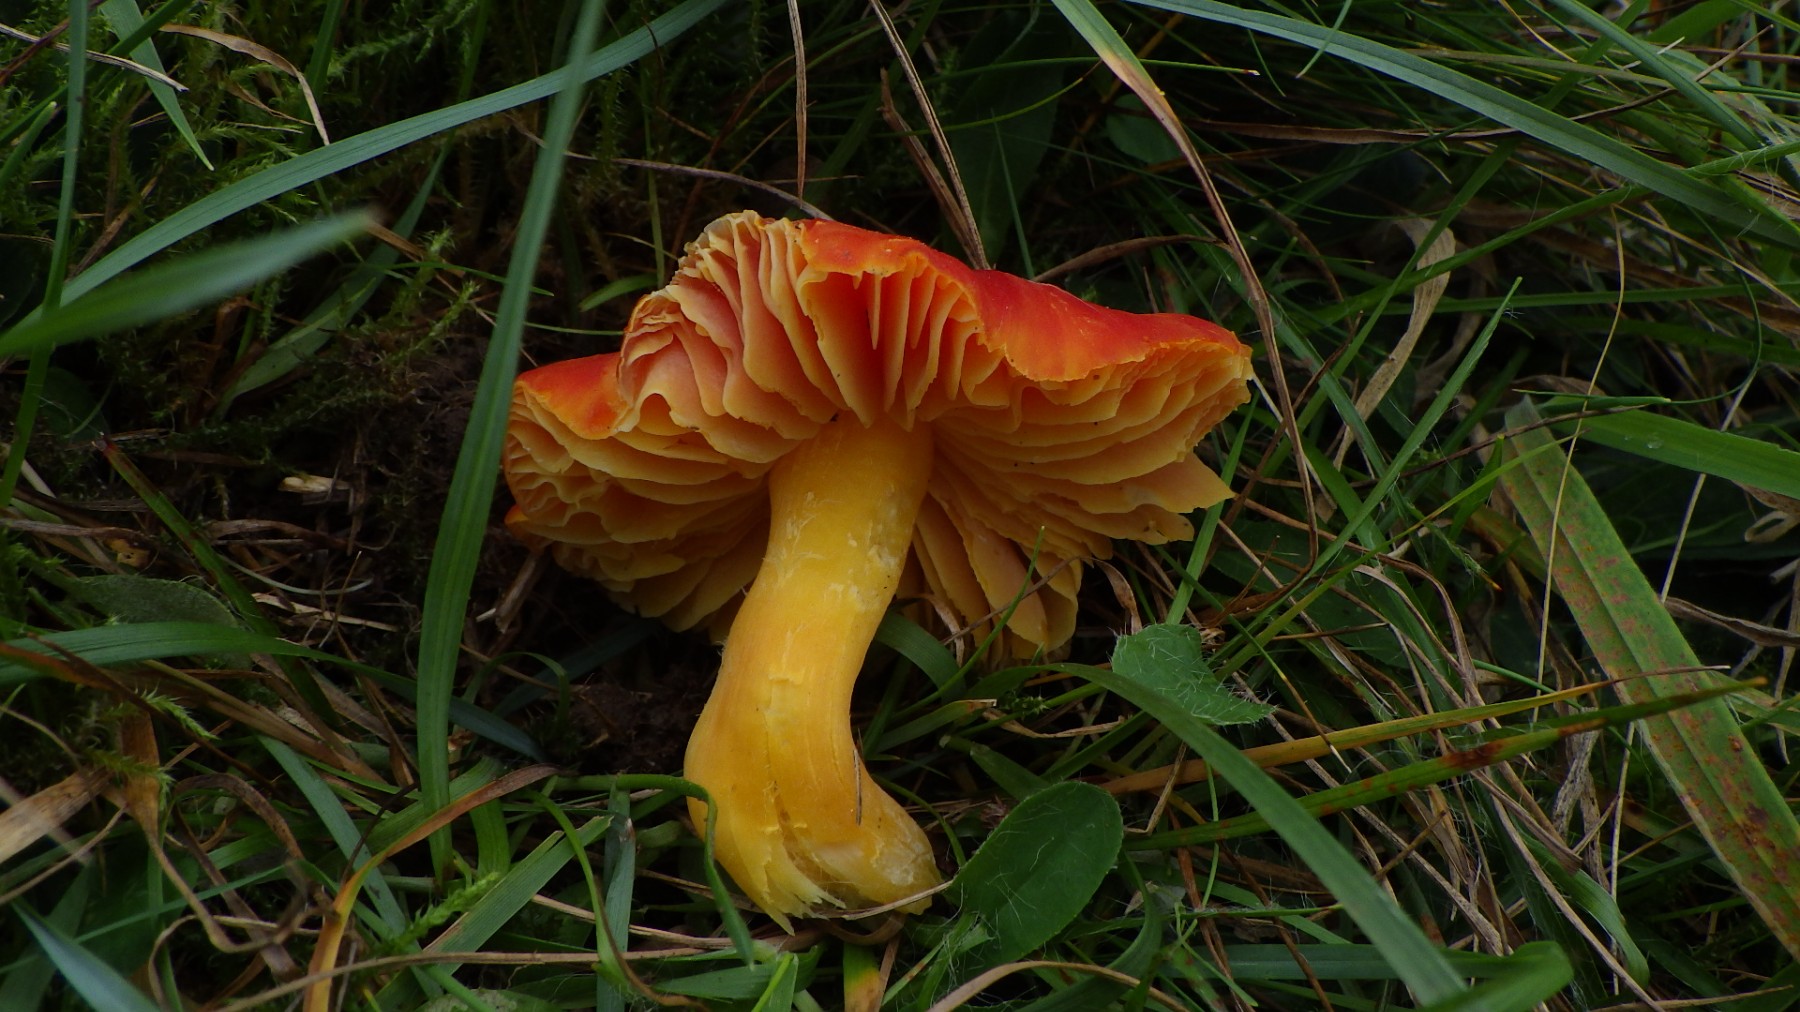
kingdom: Fungi
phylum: Basidiomycota
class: Agaricomycetes
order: Agaricales
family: Hygrophoraceae
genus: Hygrocybe
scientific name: Hygrocybe punicea
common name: skarlagen-vokshat
